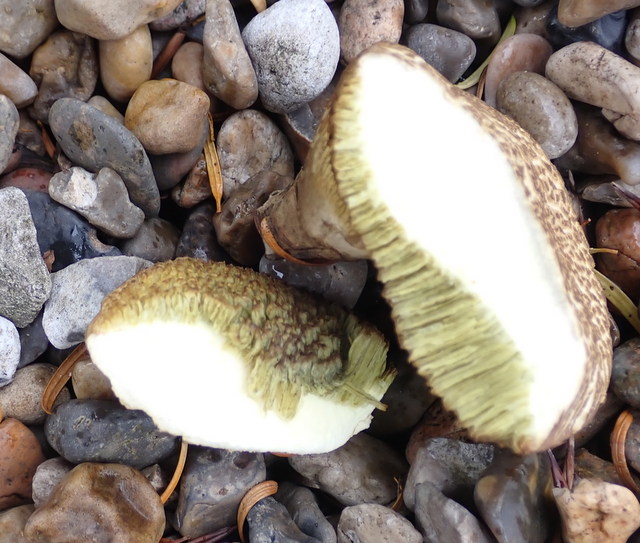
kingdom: Fungi
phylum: Basidiomycota
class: Agaricomycetes
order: Boletales
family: Boletaceae
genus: Xerocomellus
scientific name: Xerocomellus porosporus
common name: hvidsprukken rørhat
